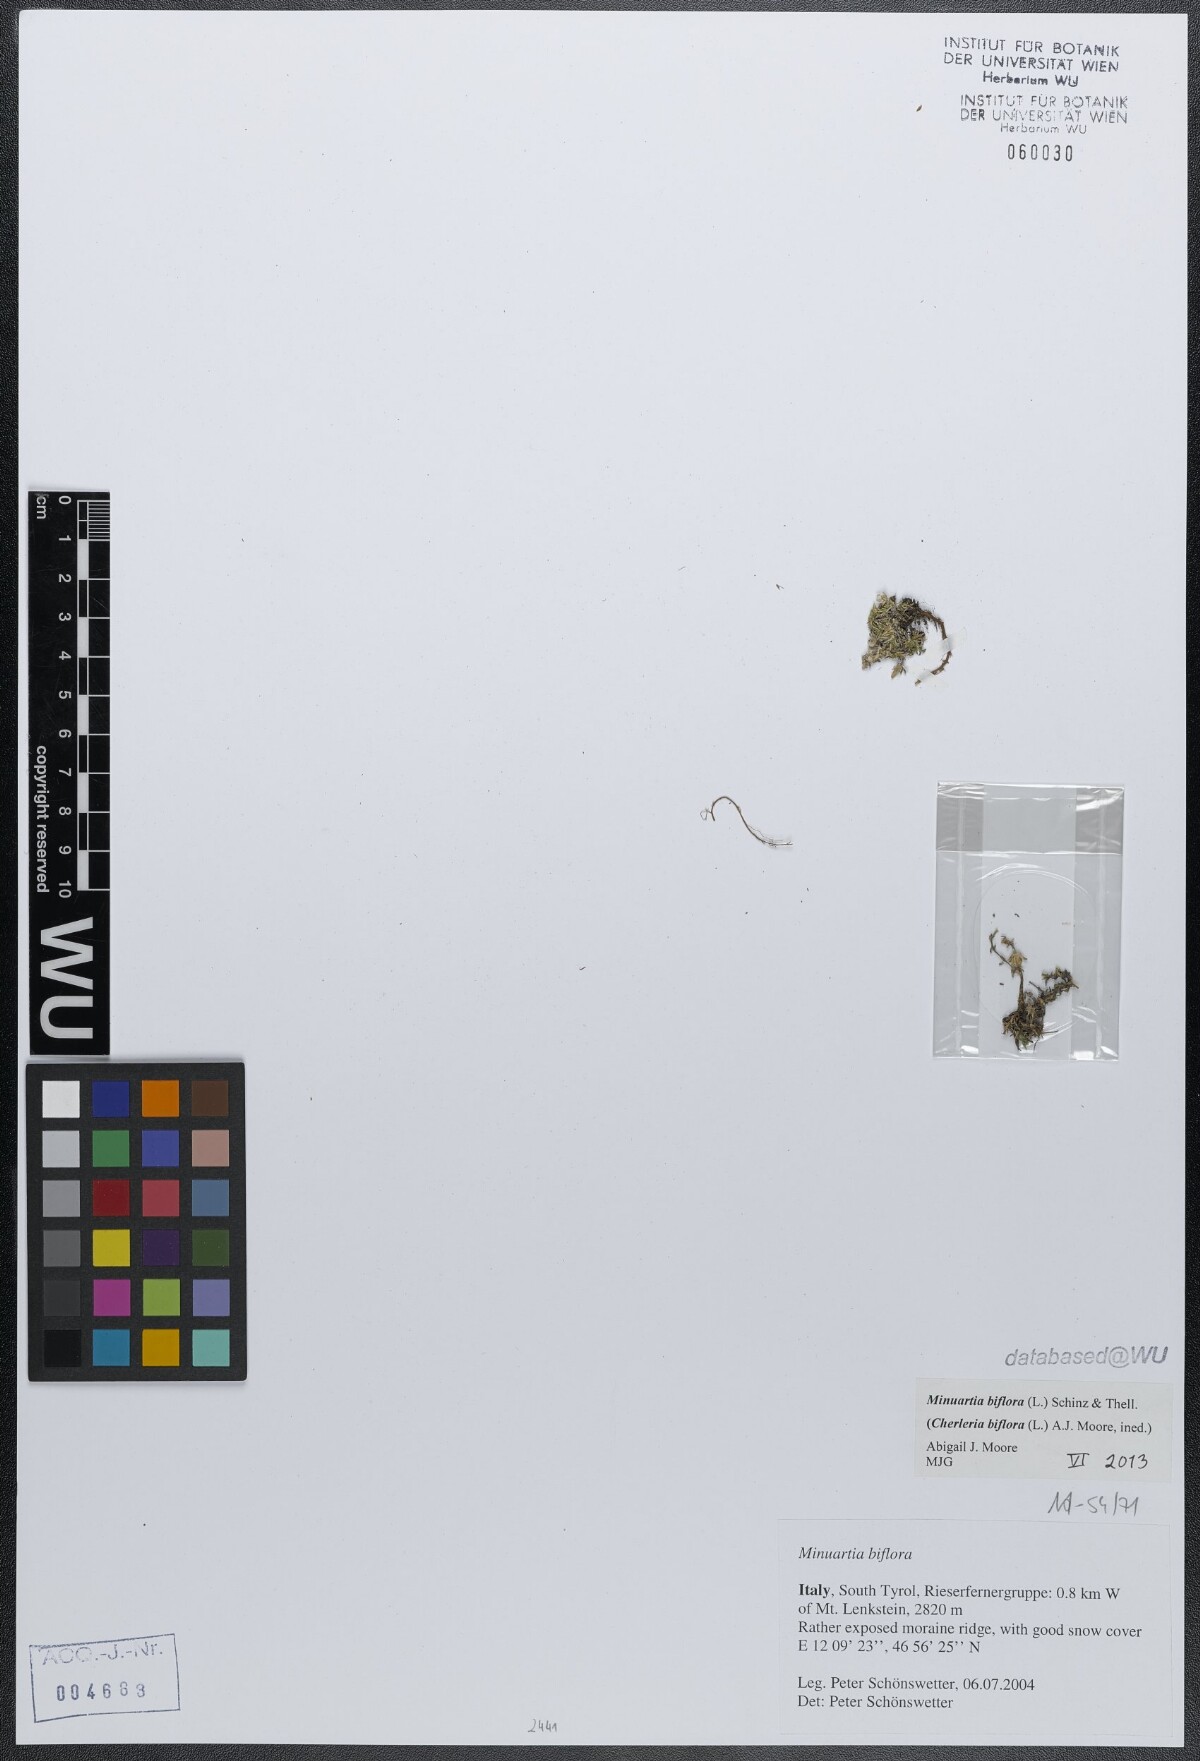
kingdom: Plantae
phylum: Tracheophyta
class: Magnoliopsida
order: Caryophyllales
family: Caryophyllaceae
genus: Cherleria
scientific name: Cherleria biflora
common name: Mountain sandwort
